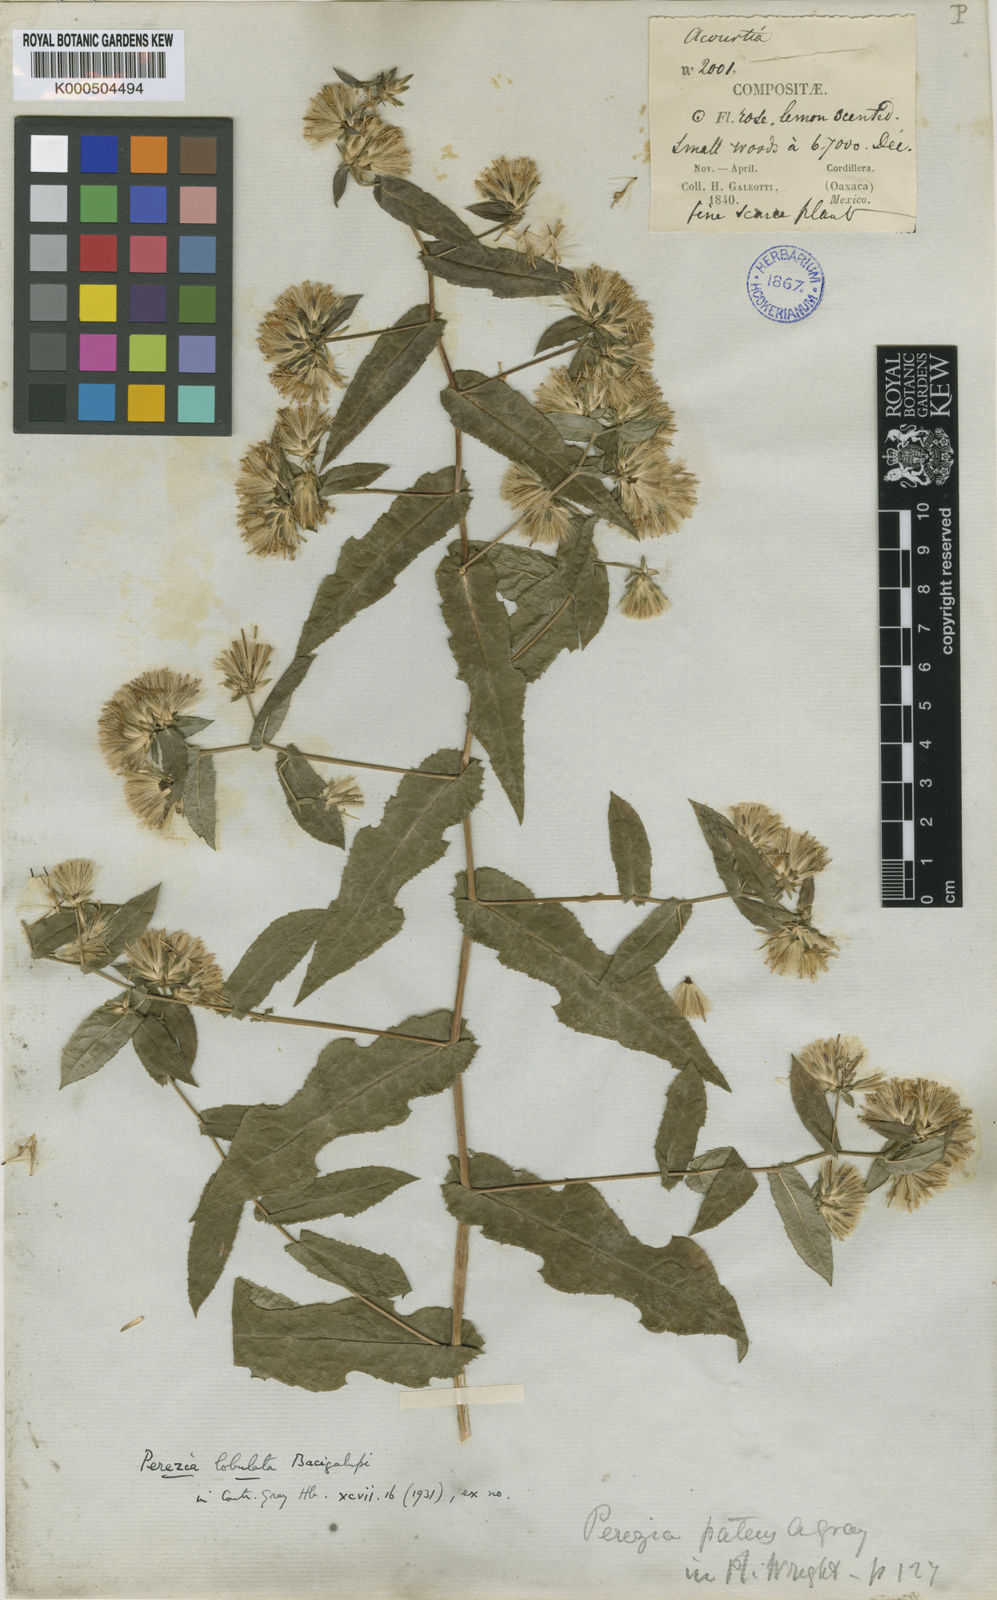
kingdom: Plantae
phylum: Tracheophyta
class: Magnoliopsida
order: Asterales
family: Asteraceae
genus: Acourtia
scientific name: Acourtia lobulata
